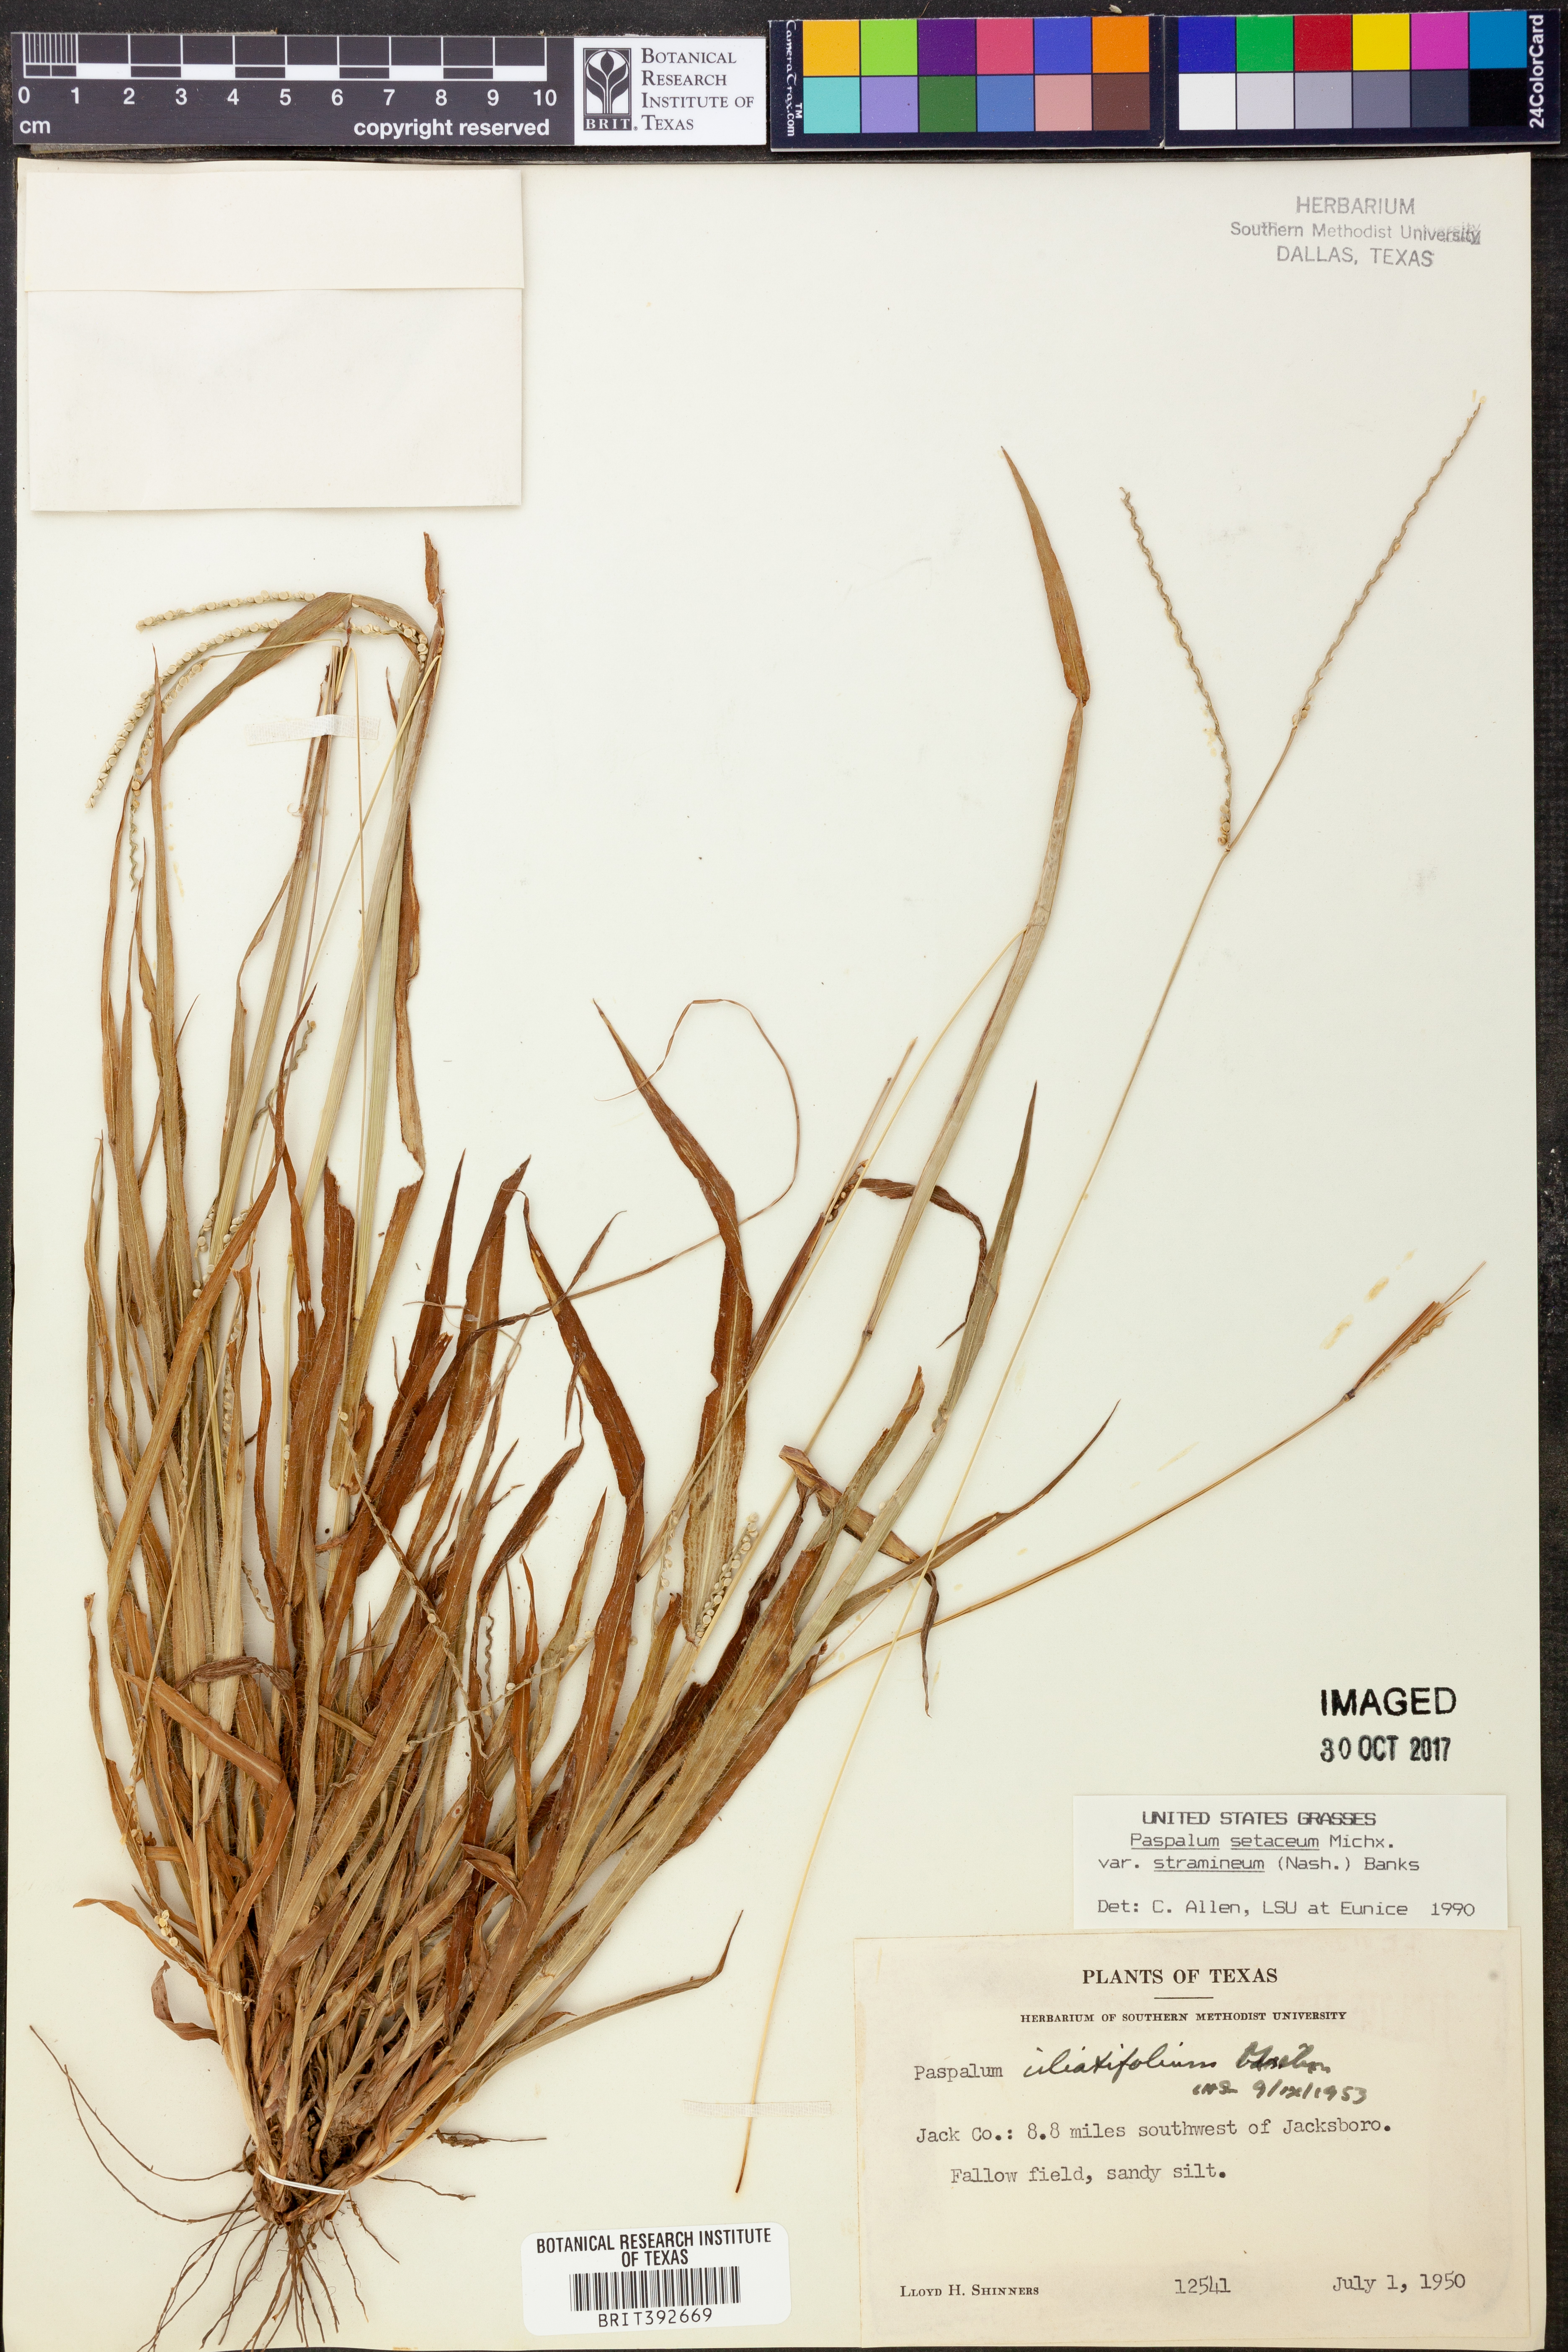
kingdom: Plantae
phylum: Tracheophyta
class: Liliopsida
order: Poales
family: Poaceae
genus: Paspalum
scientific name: Paspalum setaceum
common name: Slender paspalum
